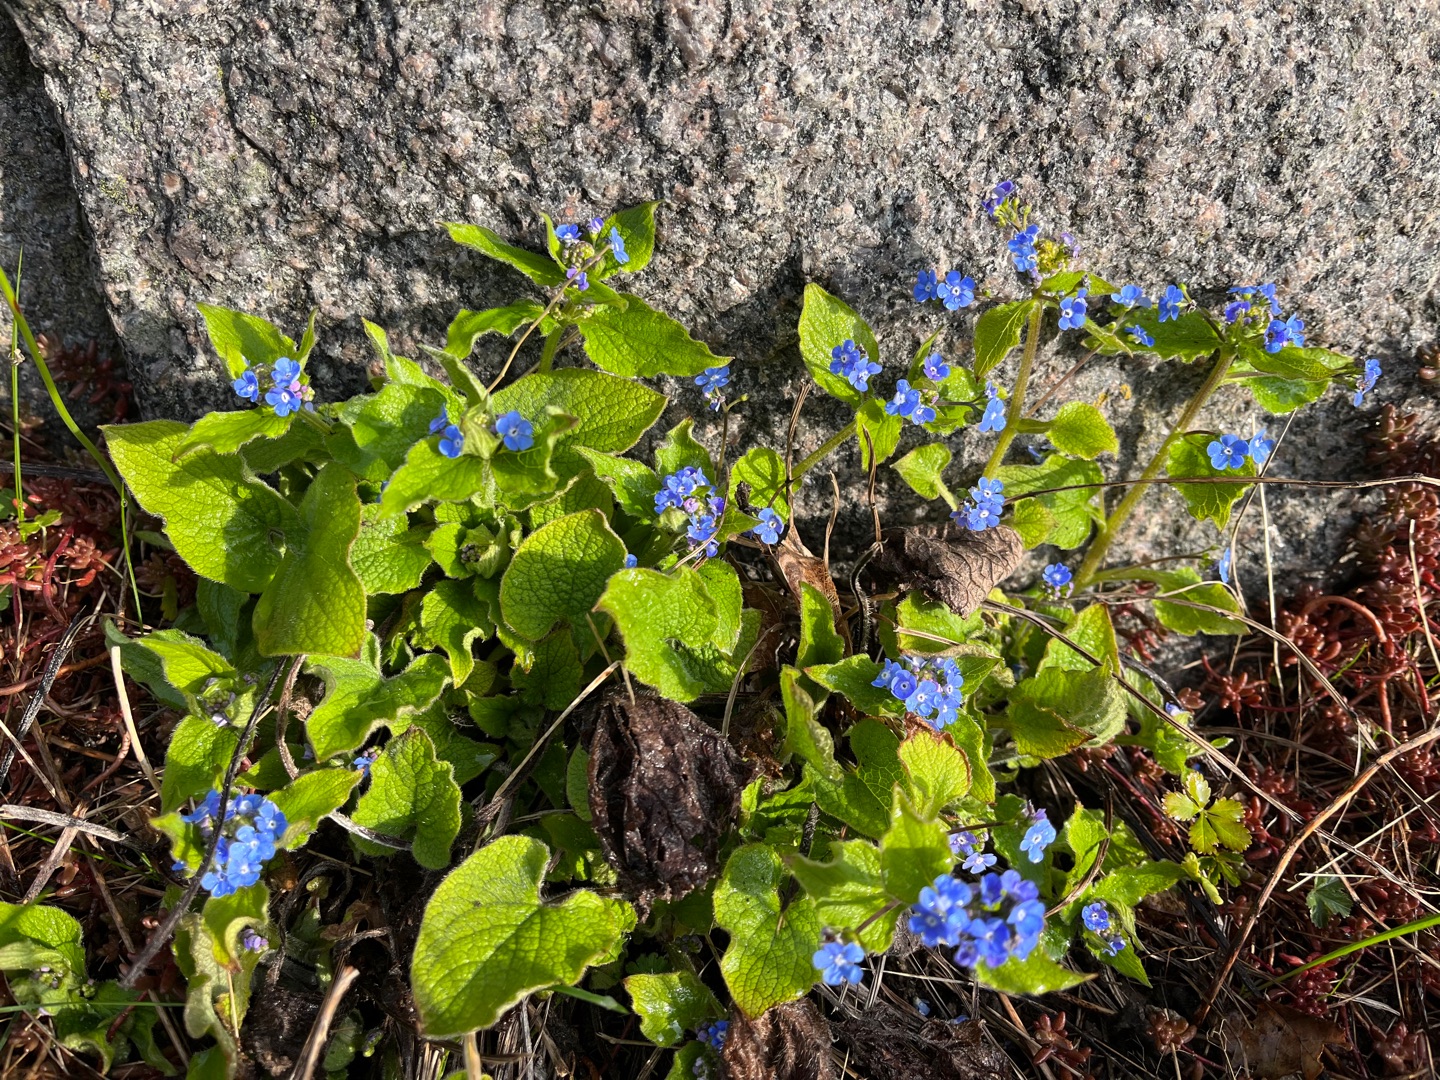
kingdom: Plantae
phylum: Tracheophyta
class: Magnoliopsida
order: Boraginales
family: Boraginaceae
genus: Brunnera
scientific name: Brunnera macrophylla
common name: Kærmindesøster
